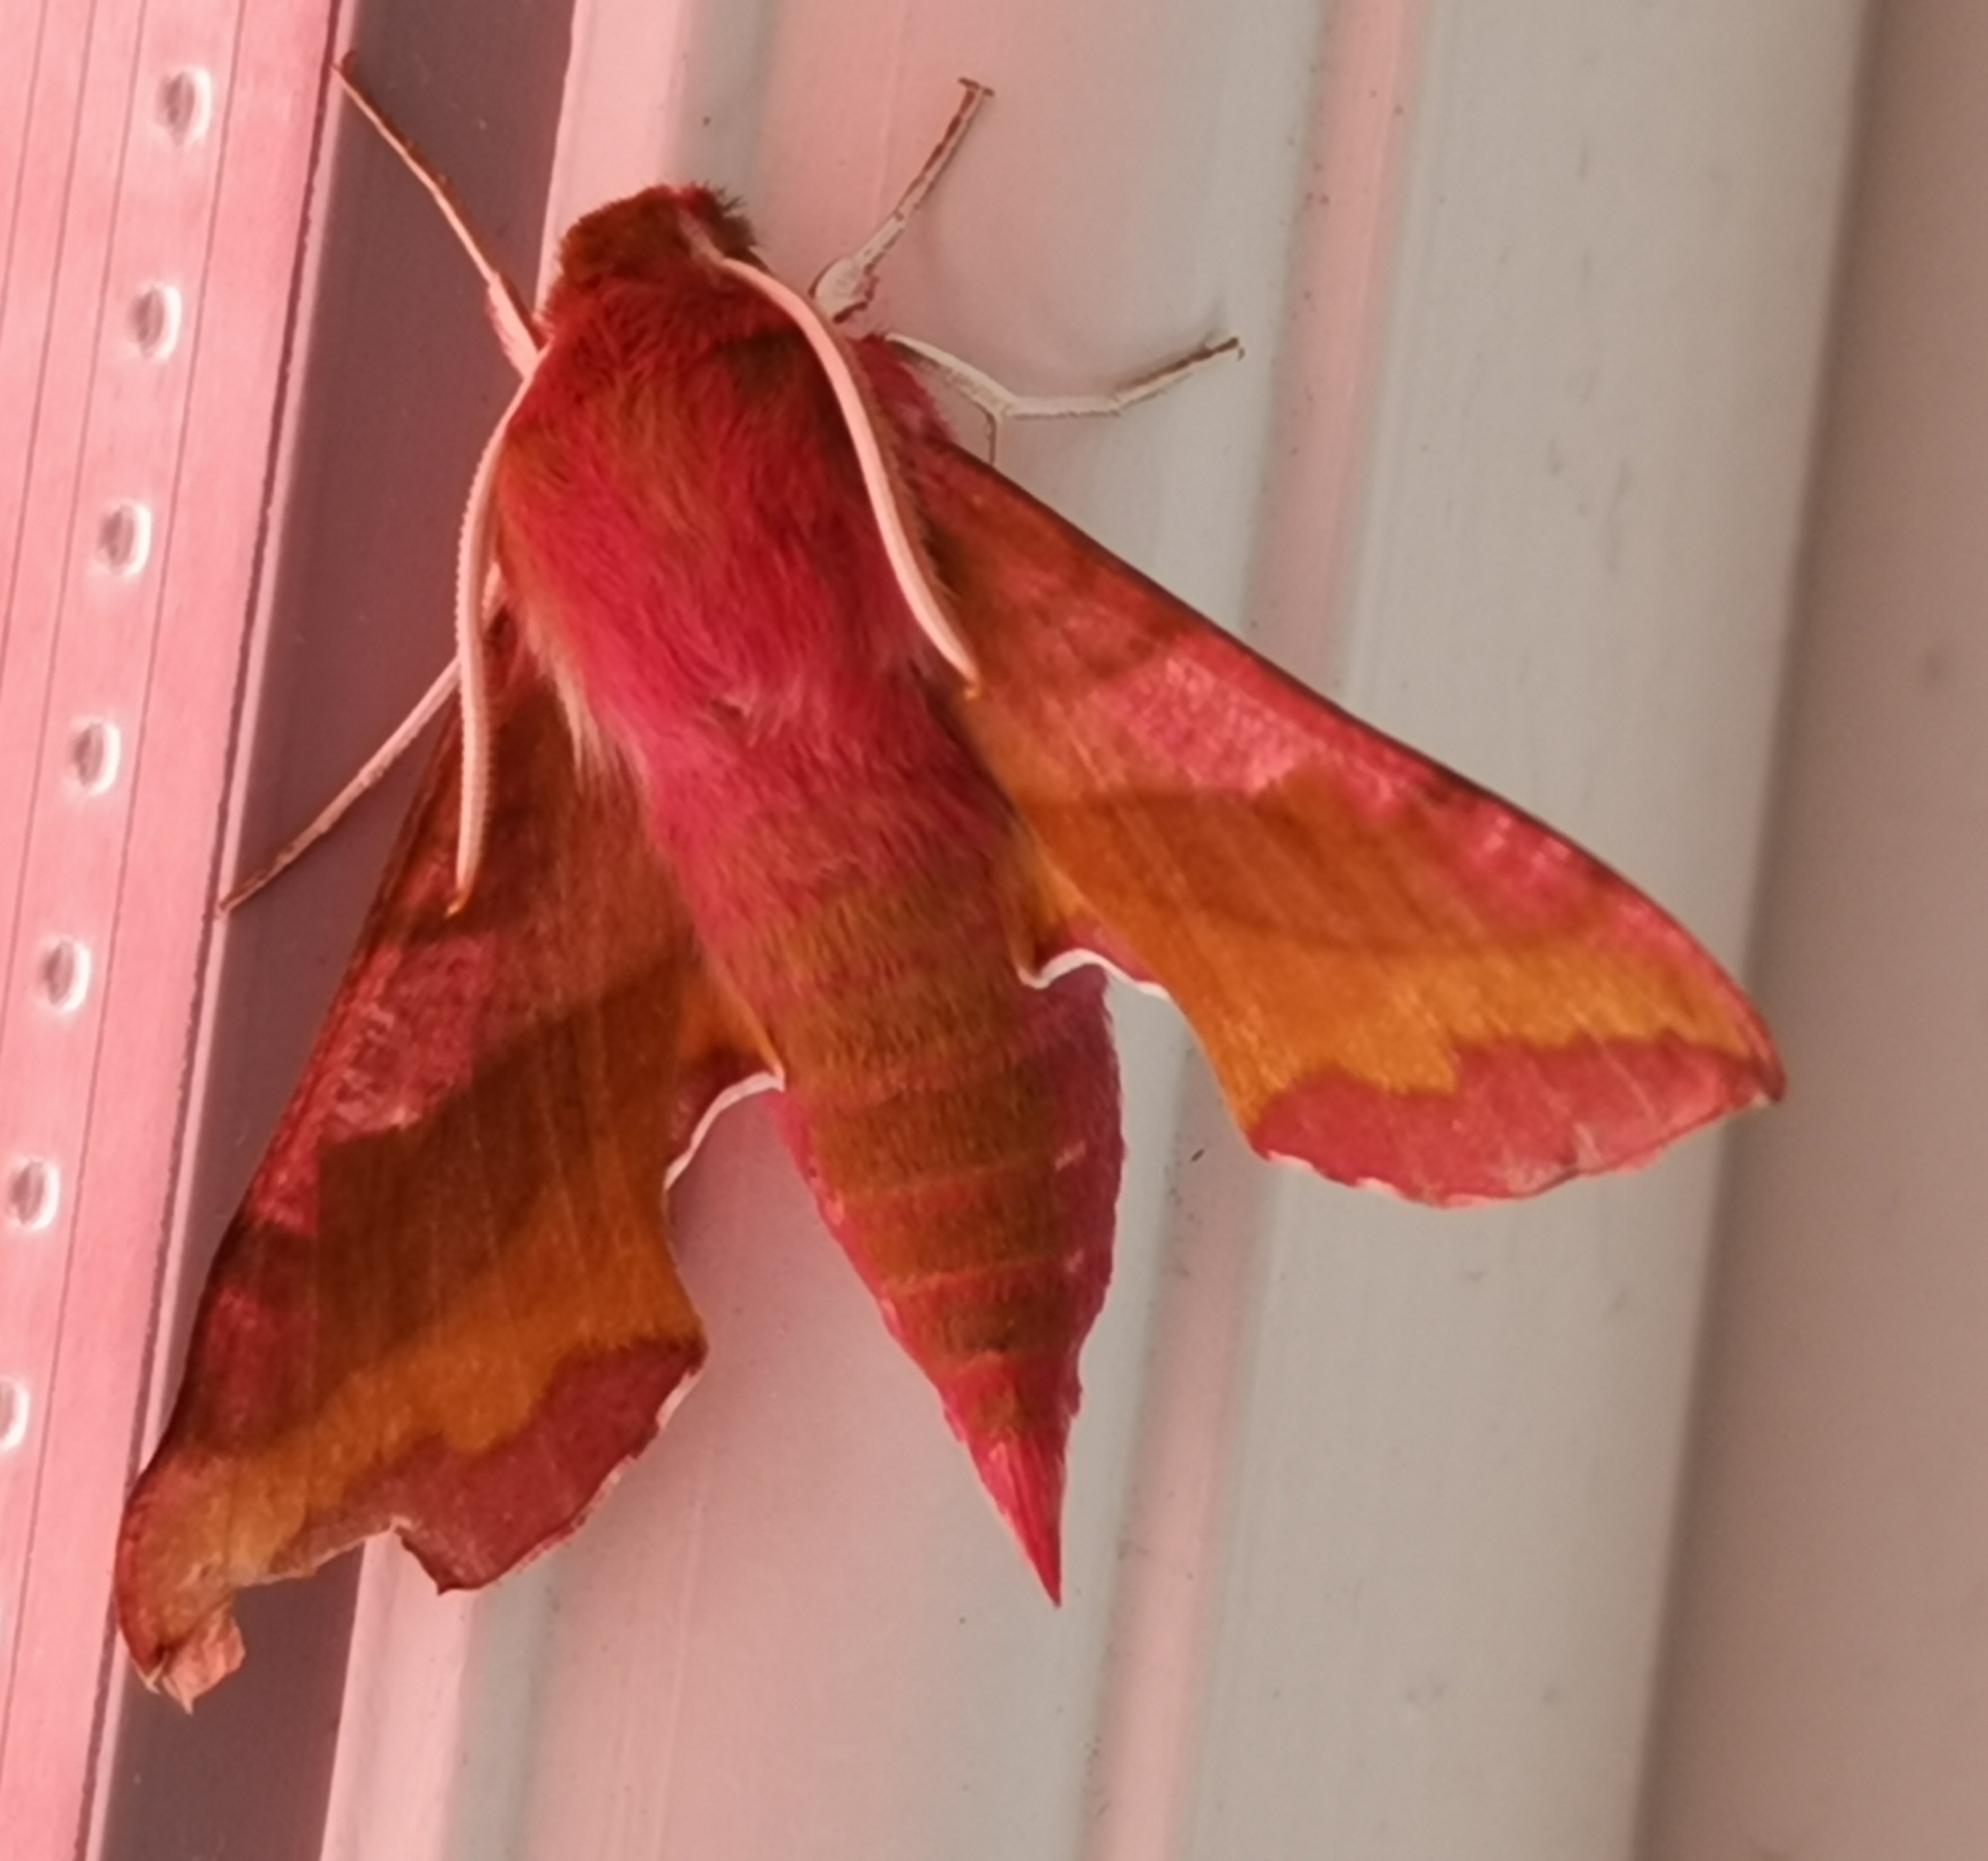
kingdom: Animalia
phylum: Arthropoda
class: Insecta
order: Lepidoptera
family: Sphingidae
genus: Deilephila
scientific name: Deilephila porcellus
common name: Lille vinsværmer
